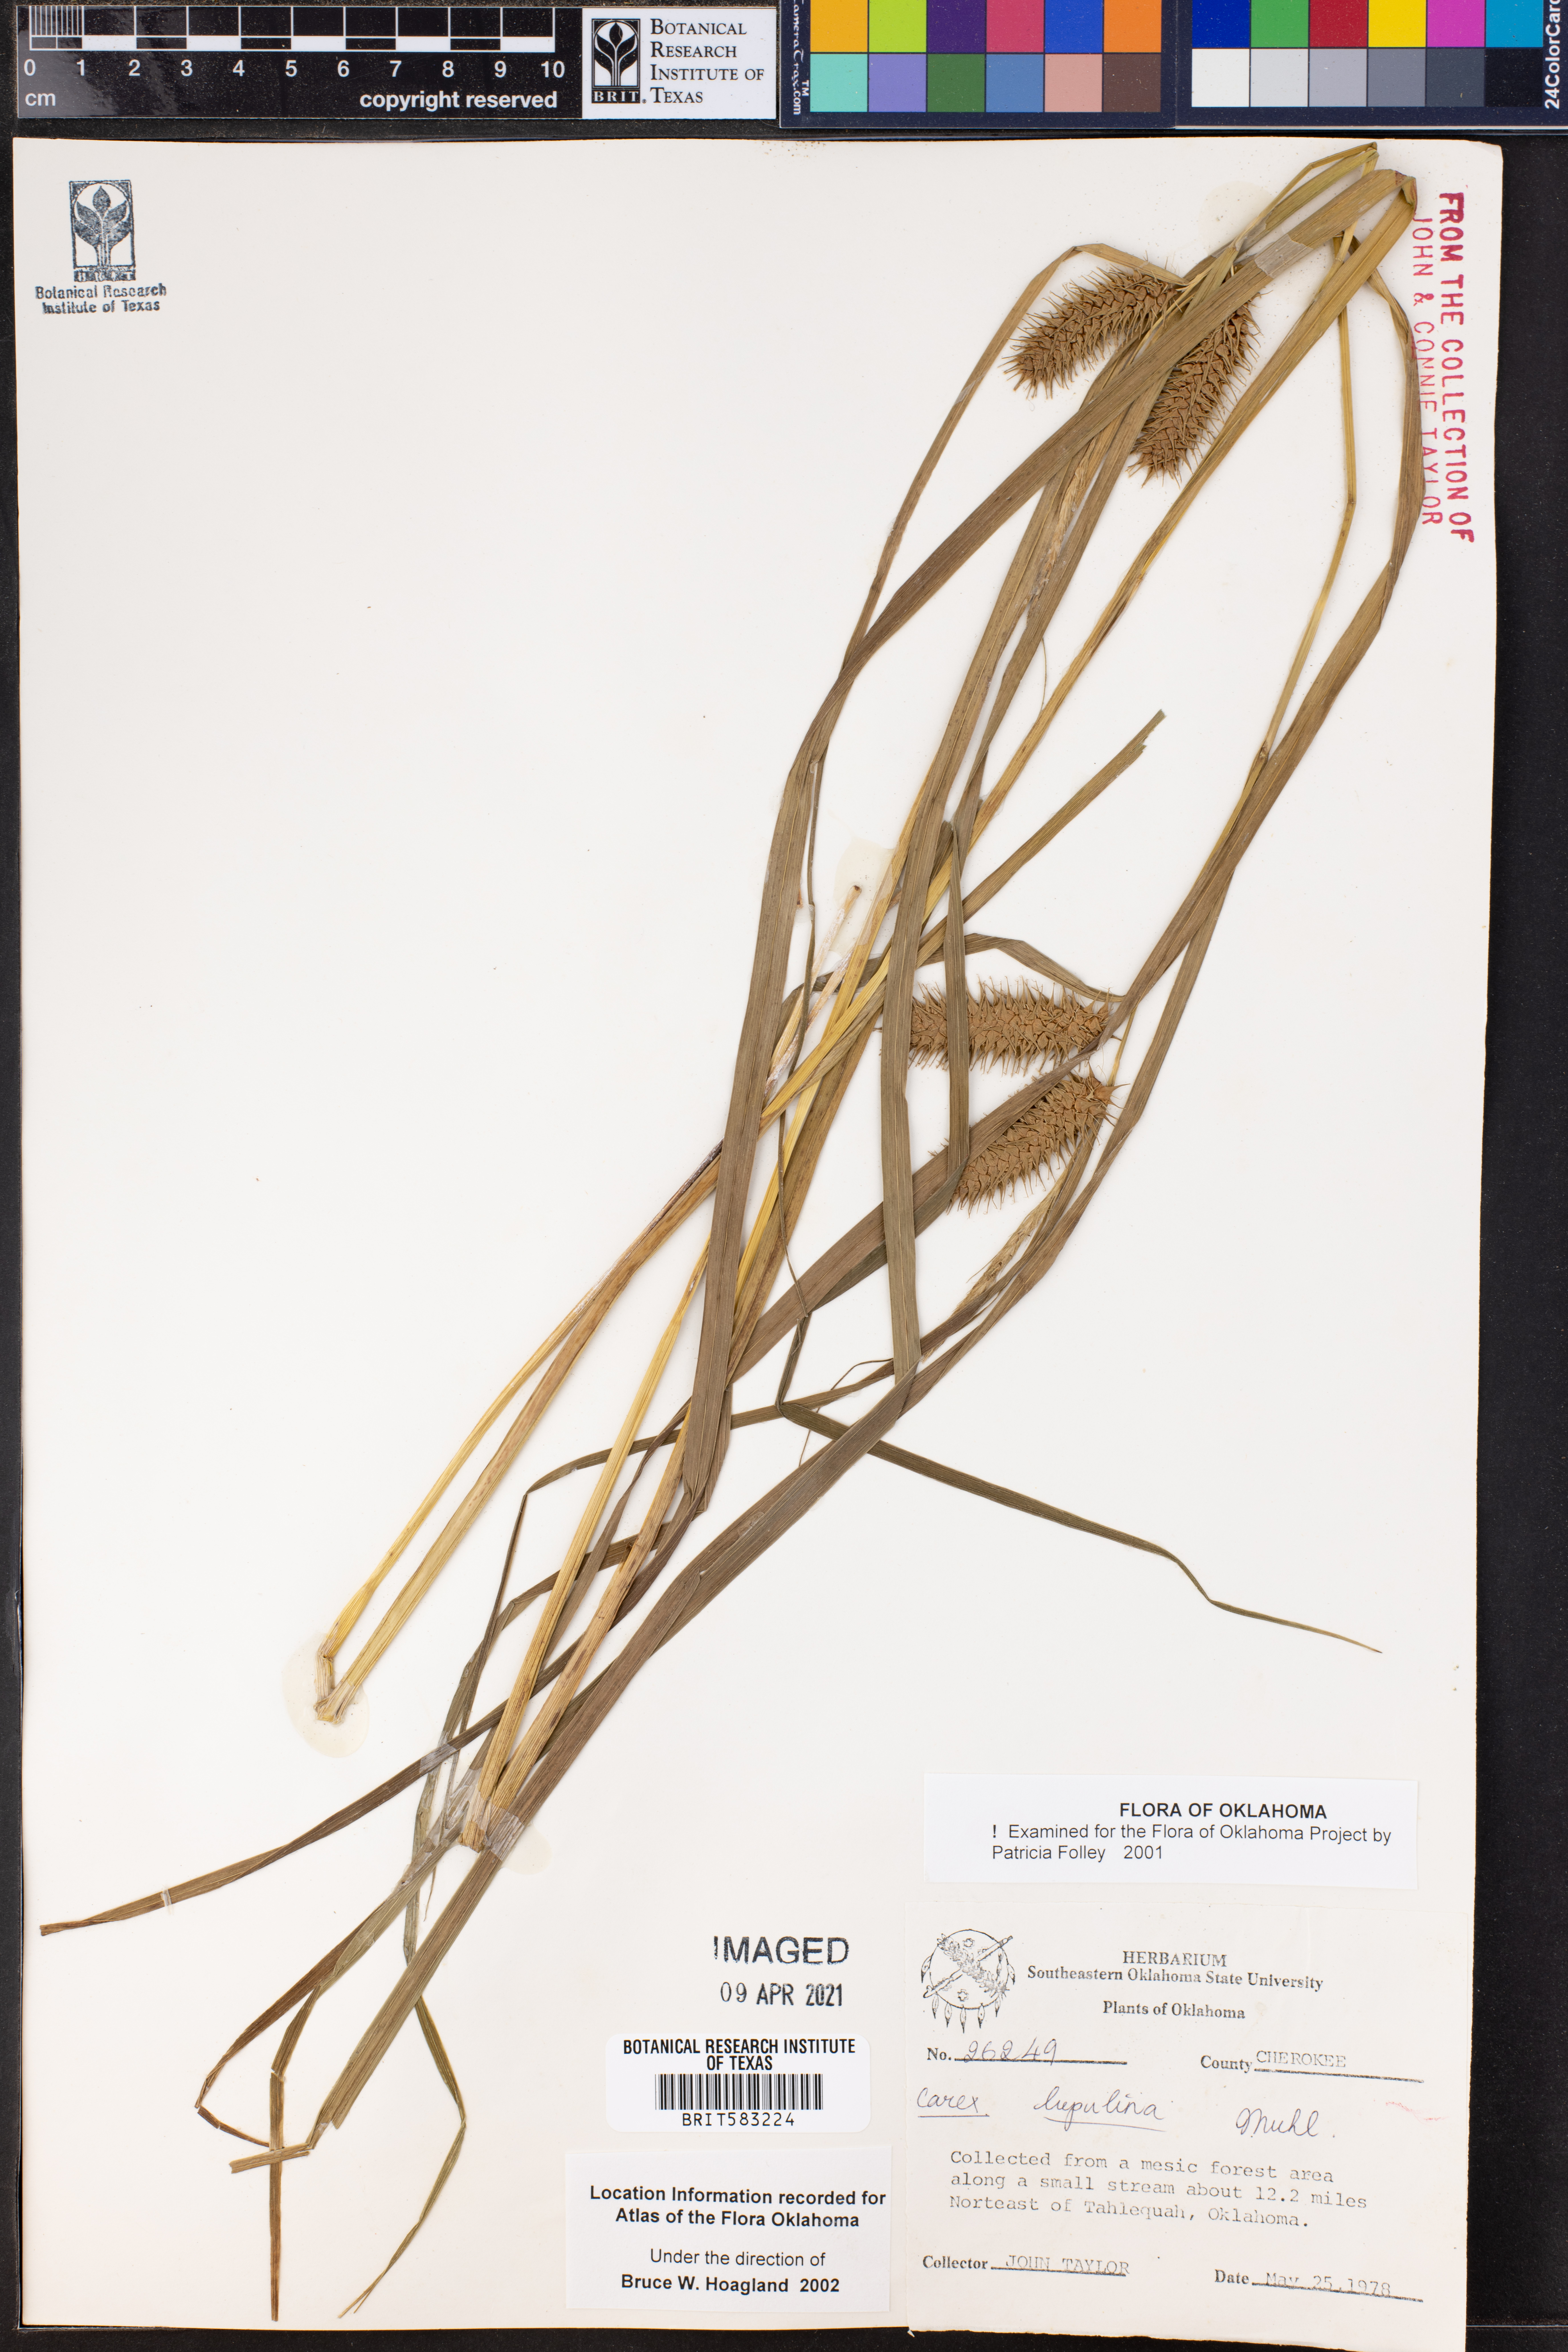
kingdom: Plantae
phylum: Tracheophyta
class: Liliopsida
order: Poales
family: Cyperaceae
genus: Carex
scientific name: Carex lupulina
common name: Hop sedge
